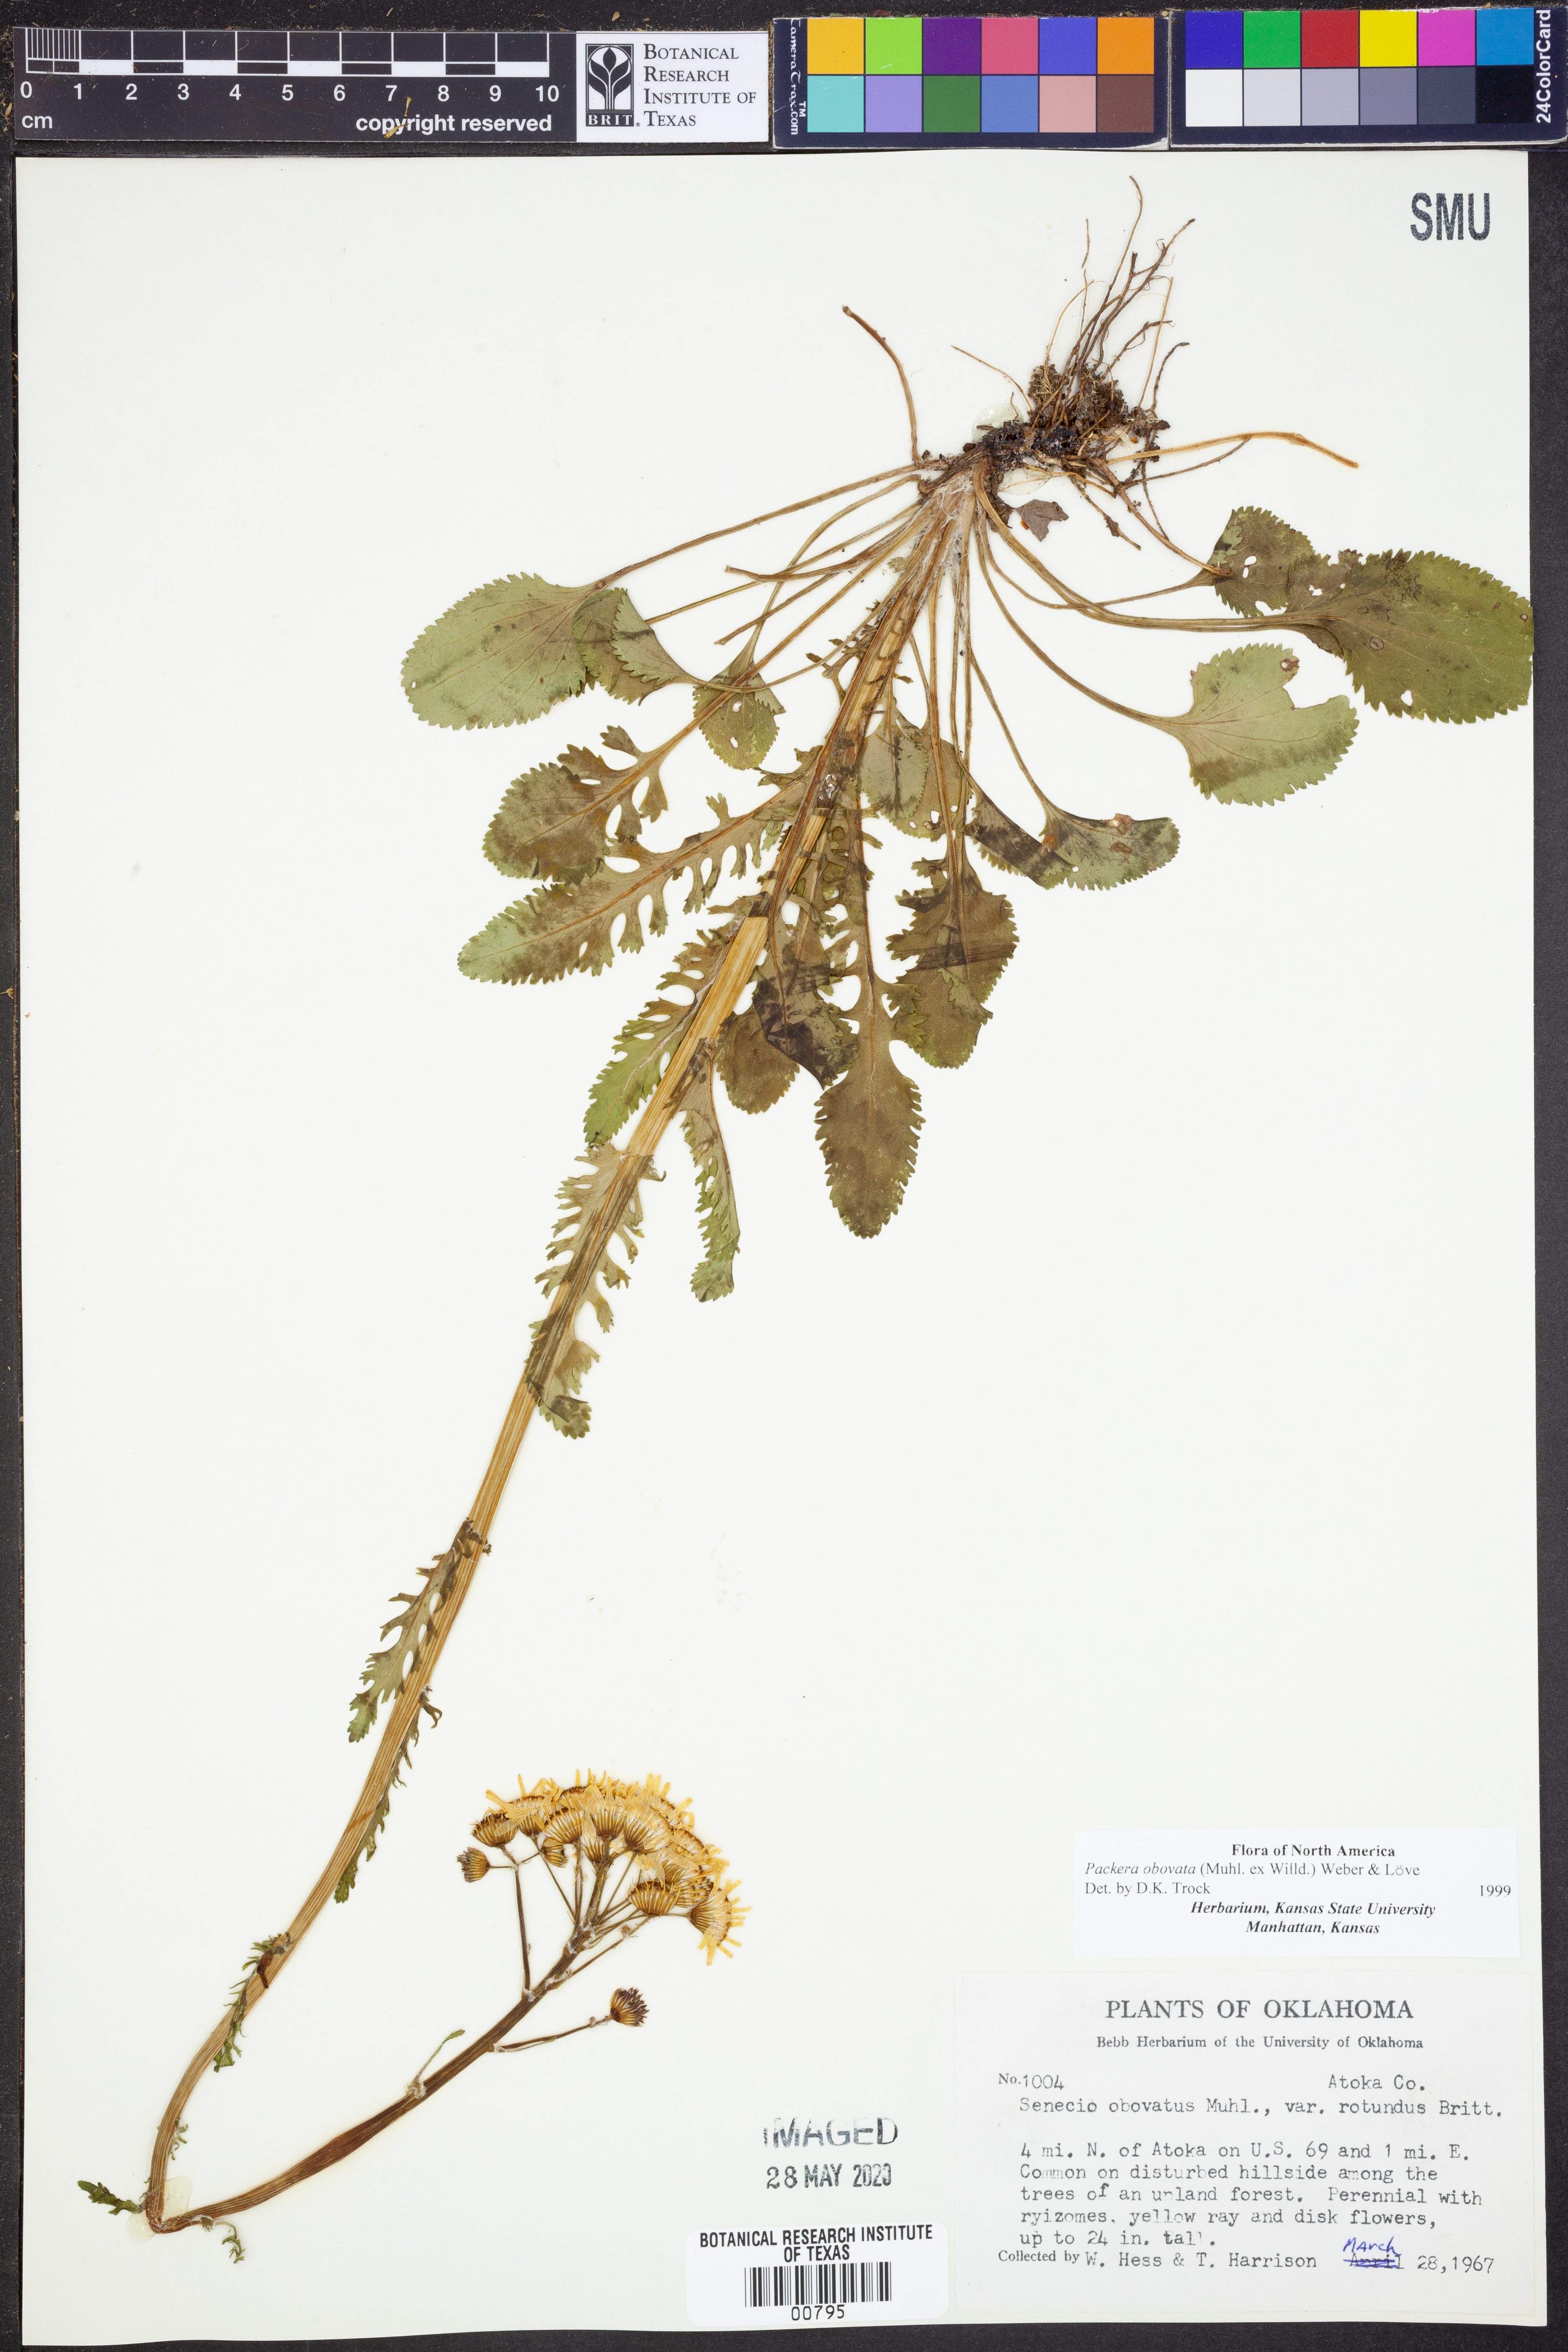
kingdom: Plantae
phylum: Tracheophyta
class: Magnoliopsida
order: Asterales
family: Asteraceae
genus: Packera
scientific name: Packera obovata
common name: Round-leaf ragwort
